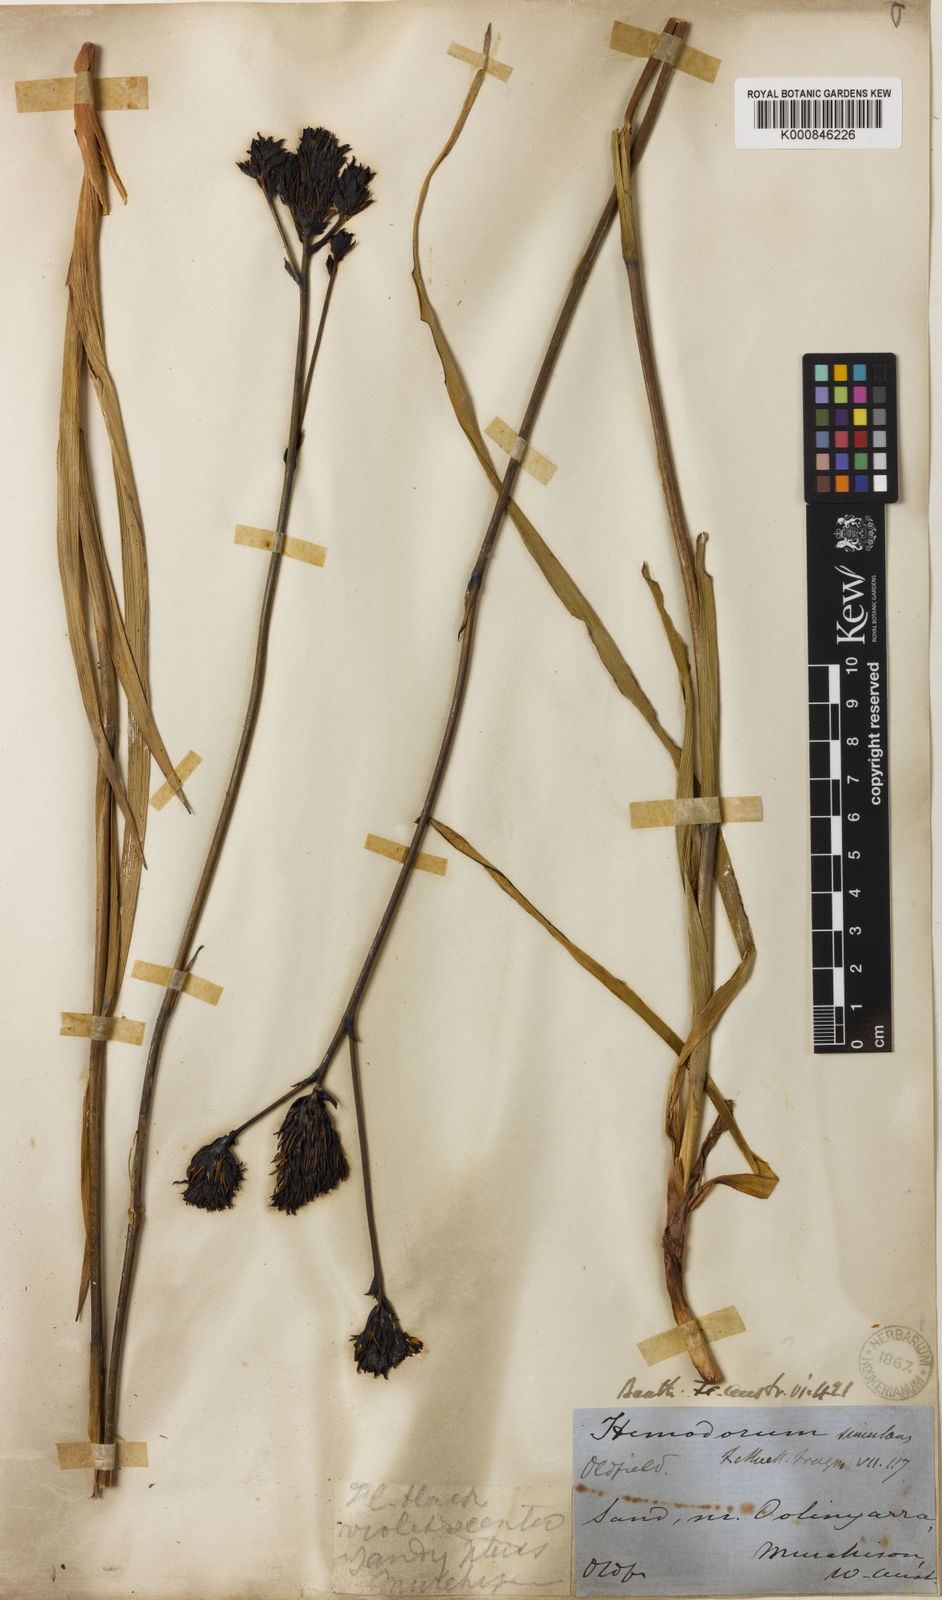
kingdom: Plantae
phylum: Tracheophyta
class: Liliopsida
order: Commelinales
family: Haemodoraceae
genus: Haemodorum
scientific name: Haemodorum simulans
